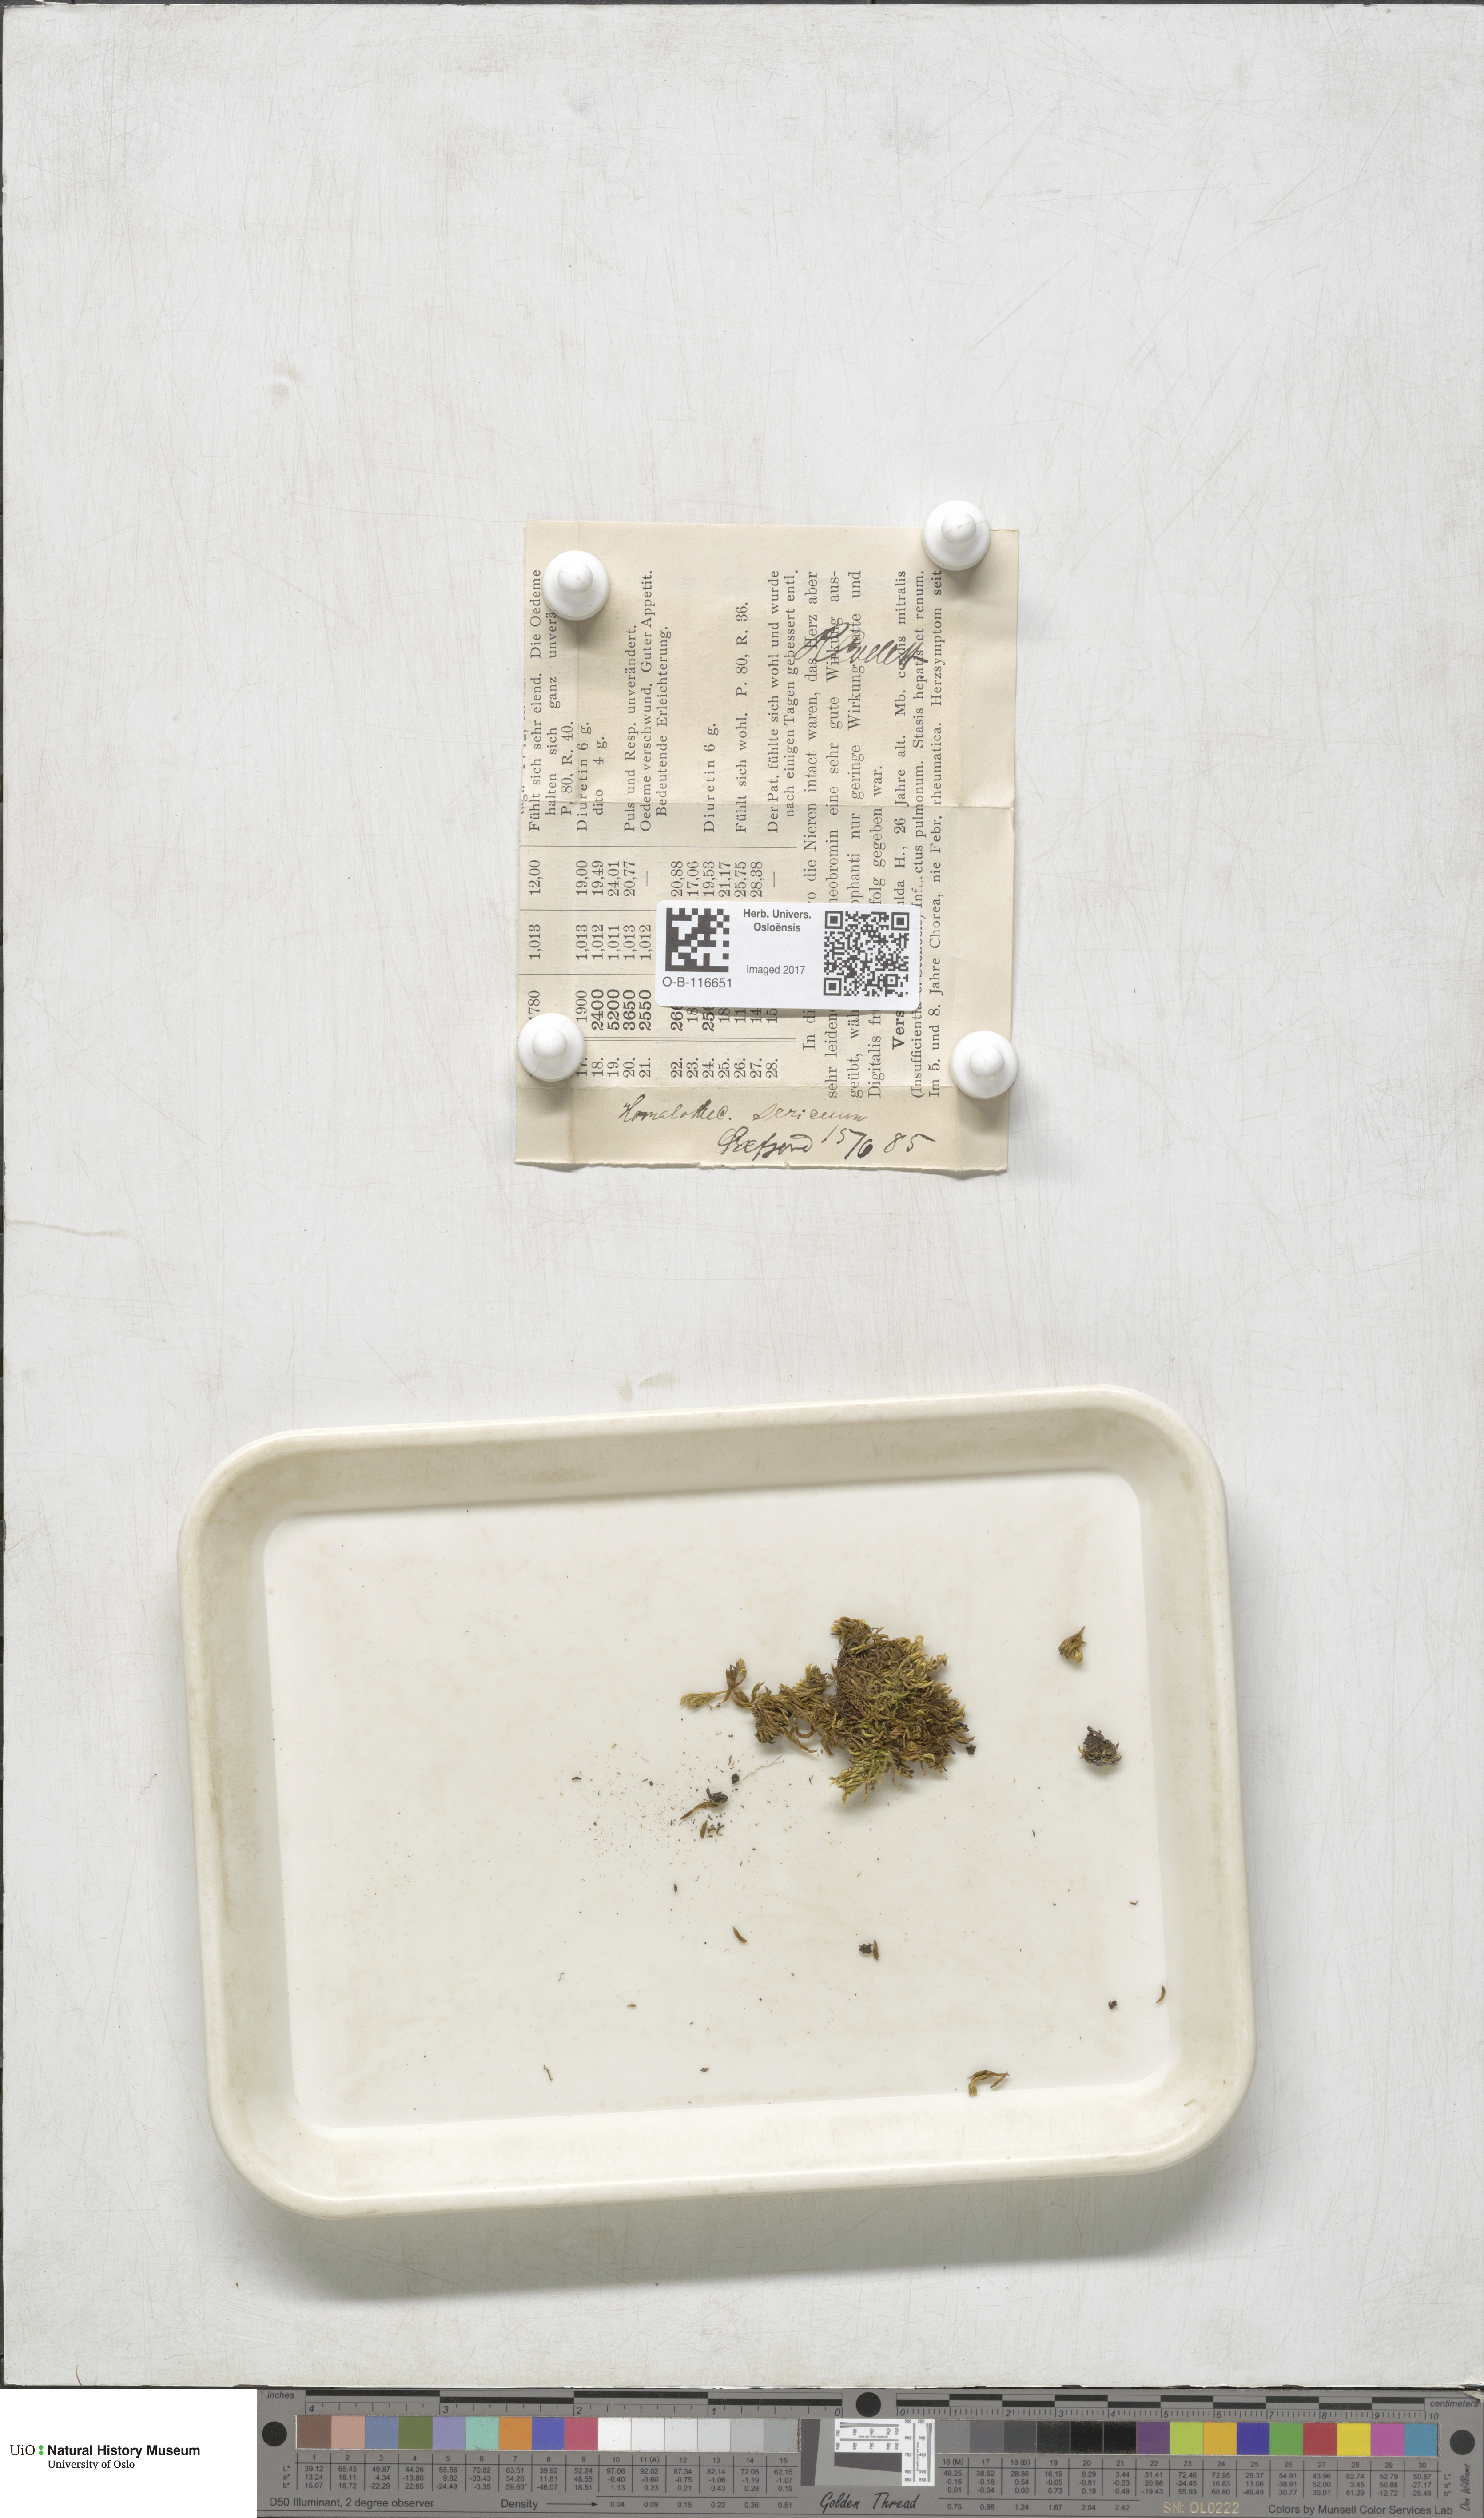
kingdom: Plantae
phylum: Bryophyta
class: Bryopsida
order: Hypnales
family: Brachytheciaceae
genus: Homalothecium
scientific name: Homalothecium sericeum
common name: Silky wall feather-moss
